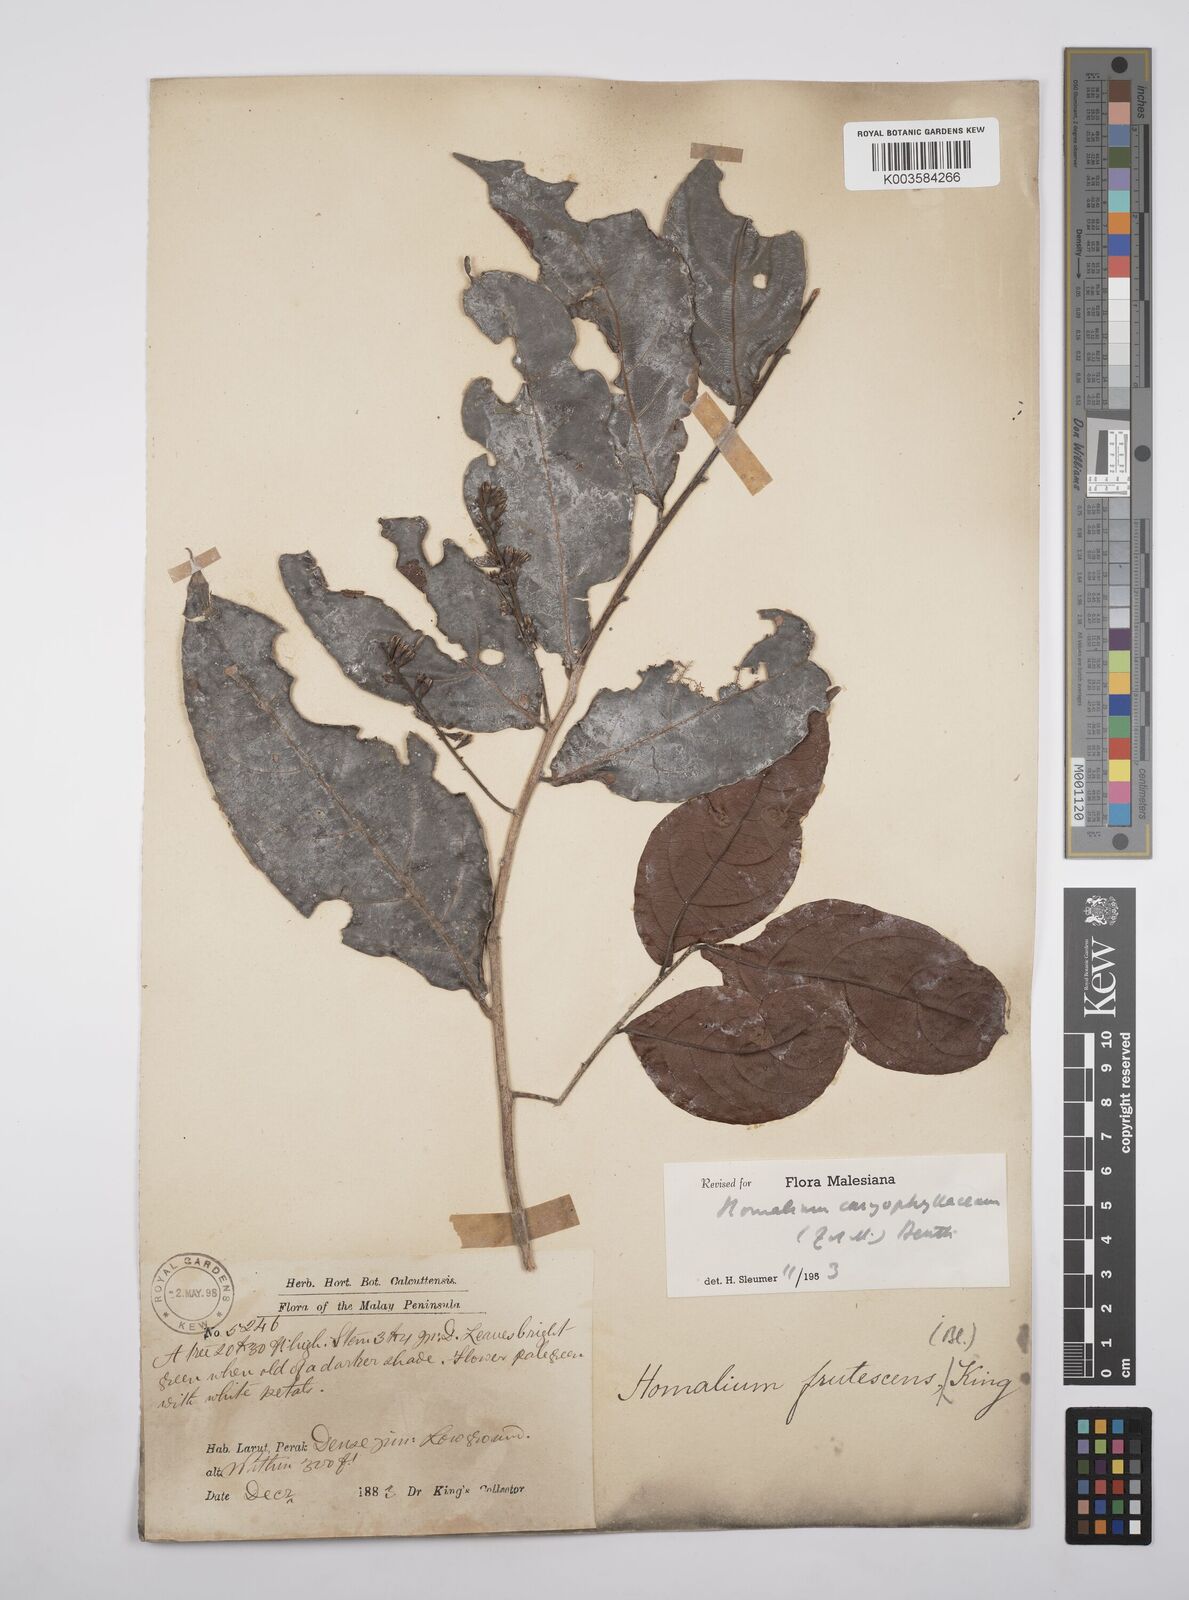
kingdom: Plantae
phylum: Tracheophyta
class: Magnoliopsida
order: Malpighiales
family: Salicaceae
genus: Homalium
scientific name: Homalium caryophyllaceum
